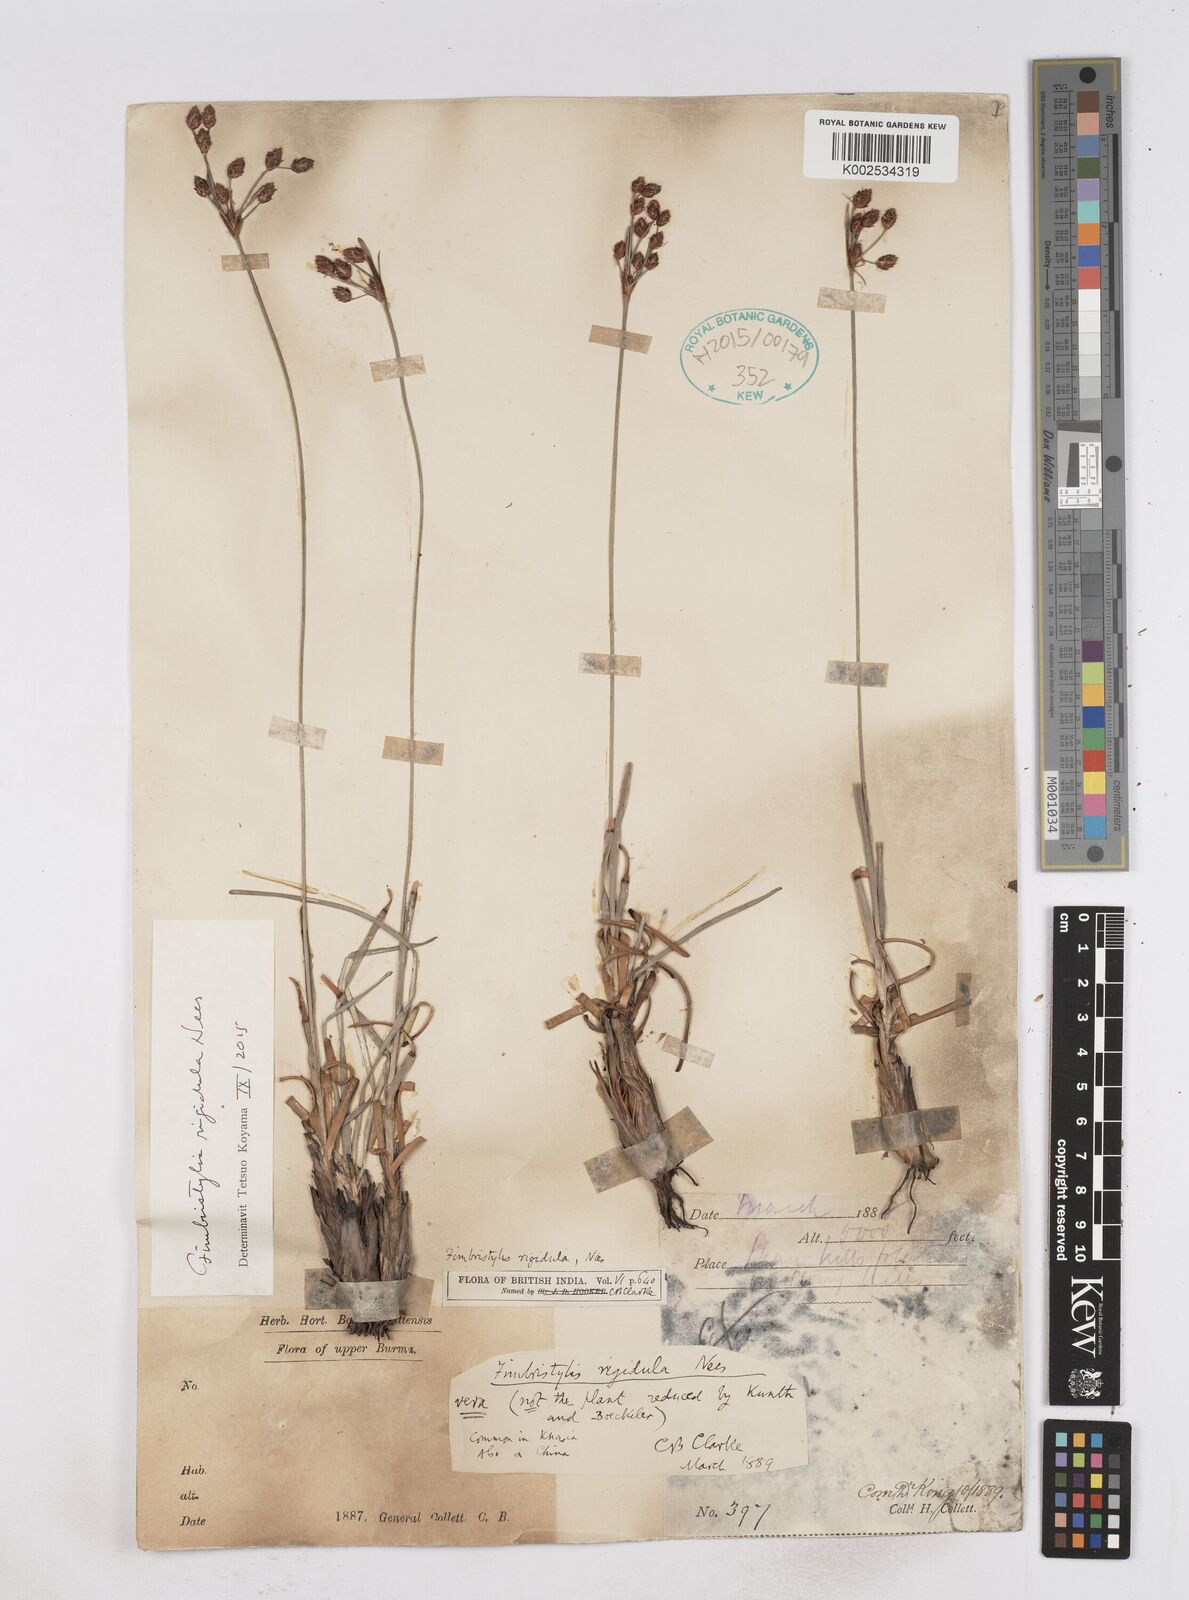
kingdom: Plantae
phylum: Tracheophyta
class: Liliopsida
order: Poales
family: Cyperaceae
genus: Fimbristylis
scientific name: Fimbristylis rigidula
